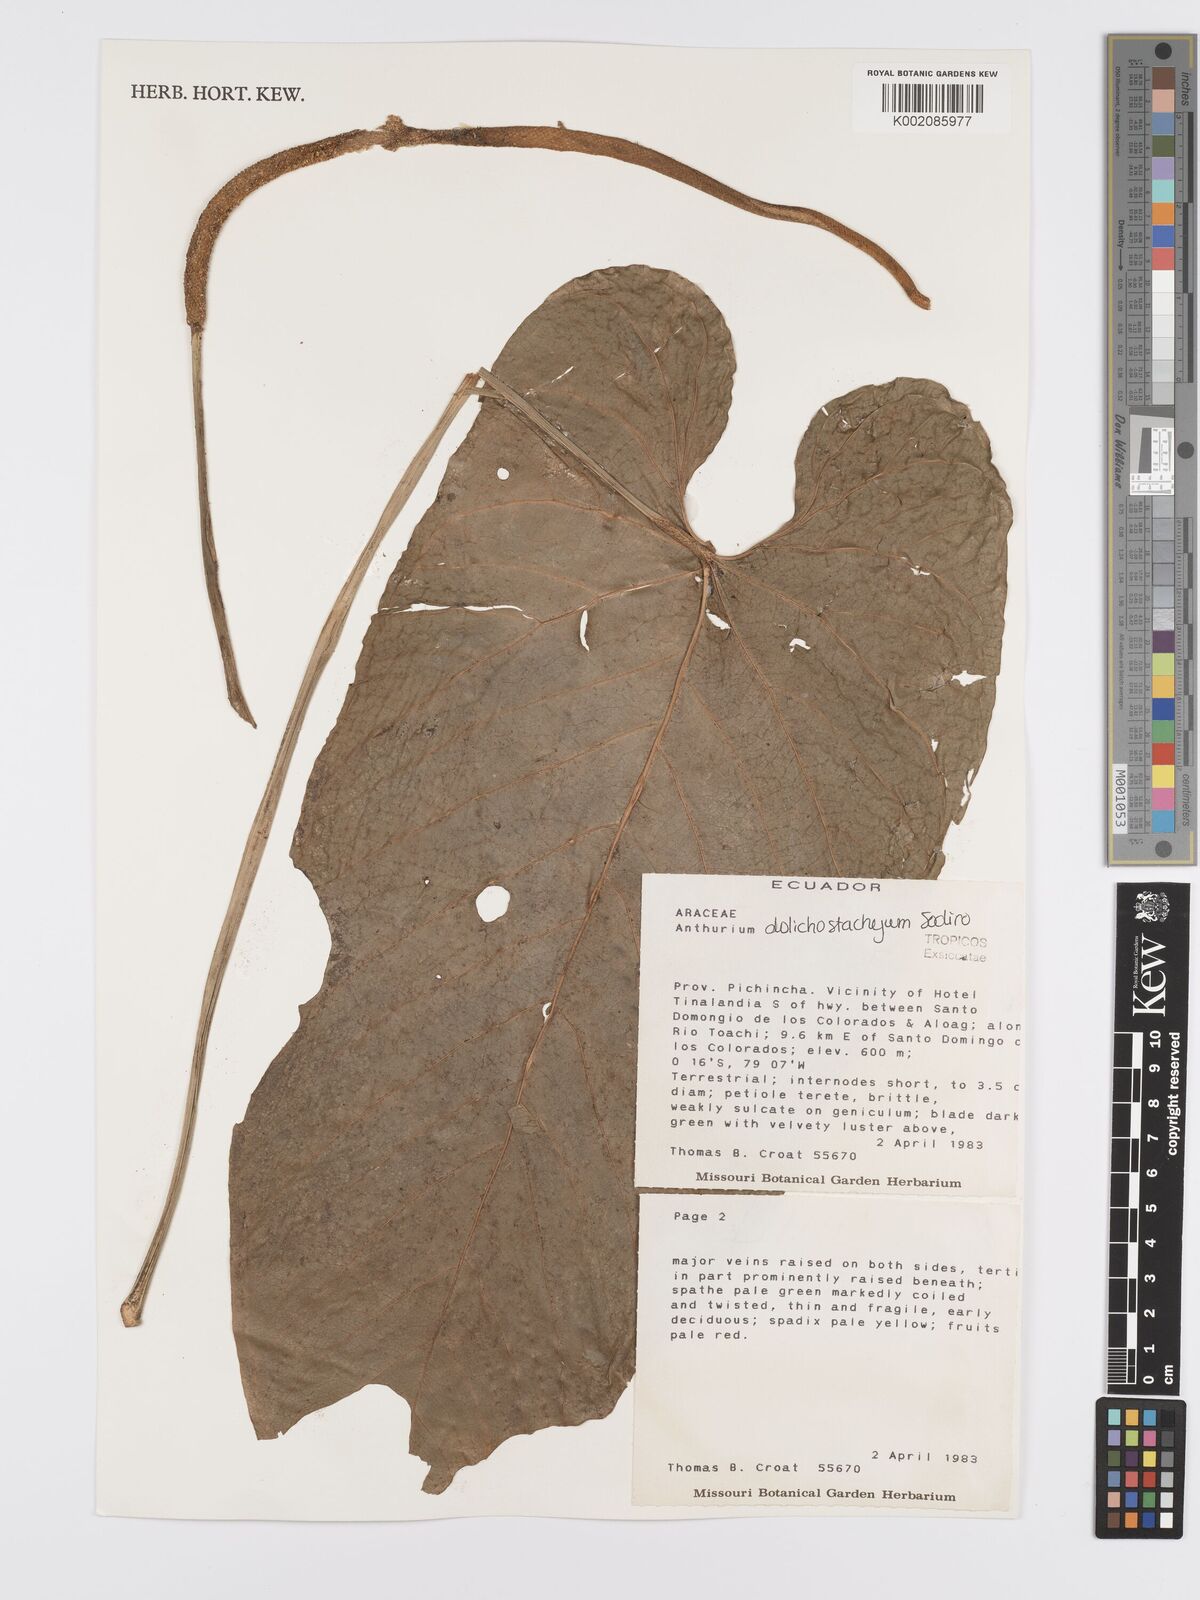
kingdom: Plantae
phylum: Tracheophyta
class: Liliopsida
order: Alismatales
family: Araceae
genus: Anthurium
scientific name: Anthurium dolichostachyum
